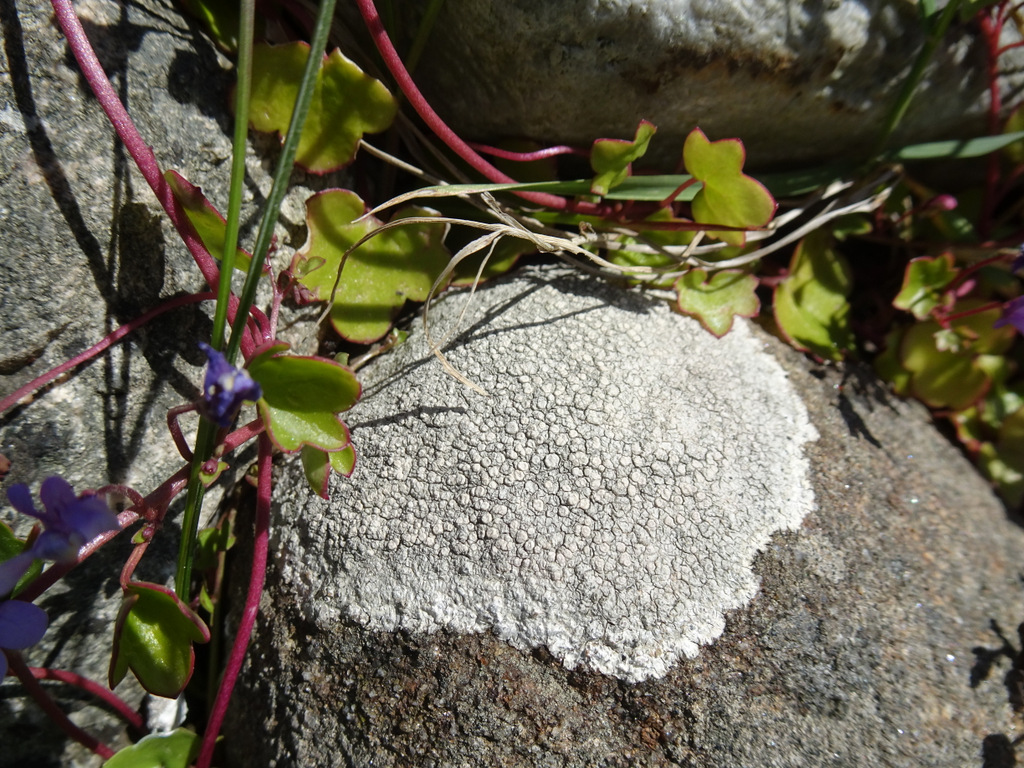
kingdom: Fungi
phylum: Ascomycota
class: Lecanoromycetes
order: Lecanorales
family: Lecanoraceae
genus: Glaucomaria
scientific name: Glaucomaria rupicola
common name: stengærde-kantskivelav
